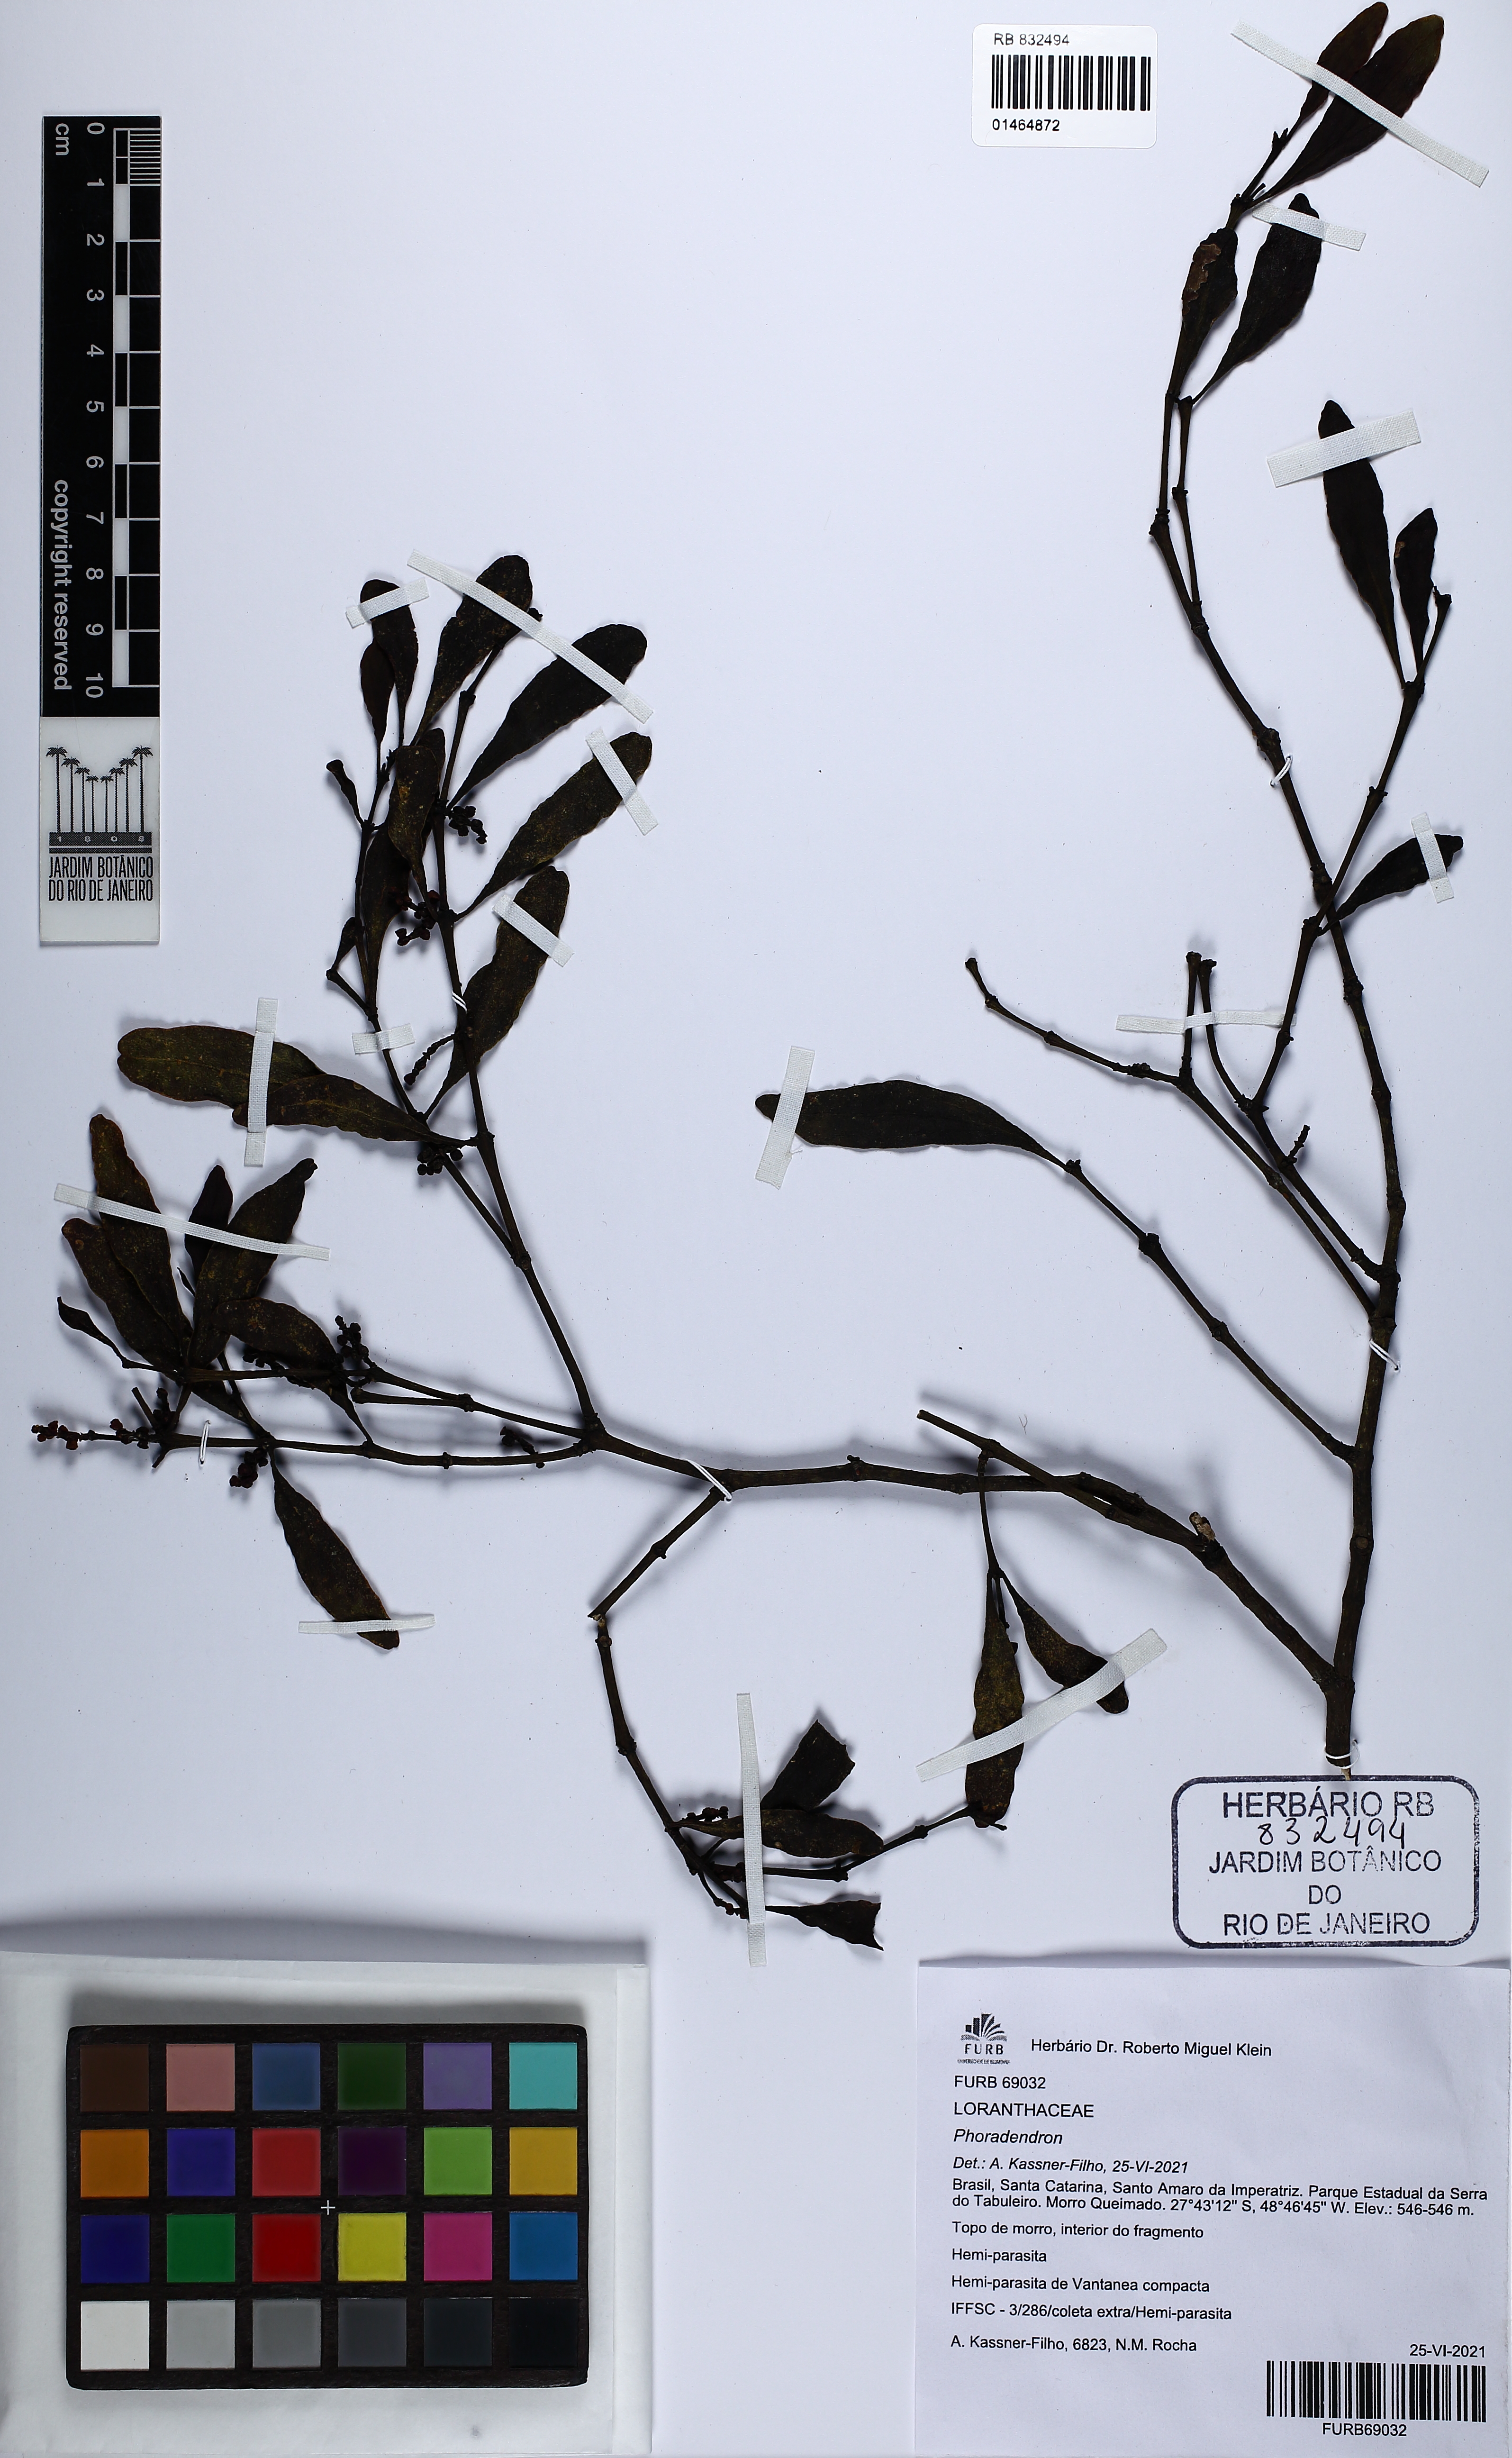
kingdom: Plantae
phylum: Tracheophyta
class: Magnoliopsida
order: Santalales
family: Viscaceae
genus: Phoradendron
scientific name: Phoradendron
